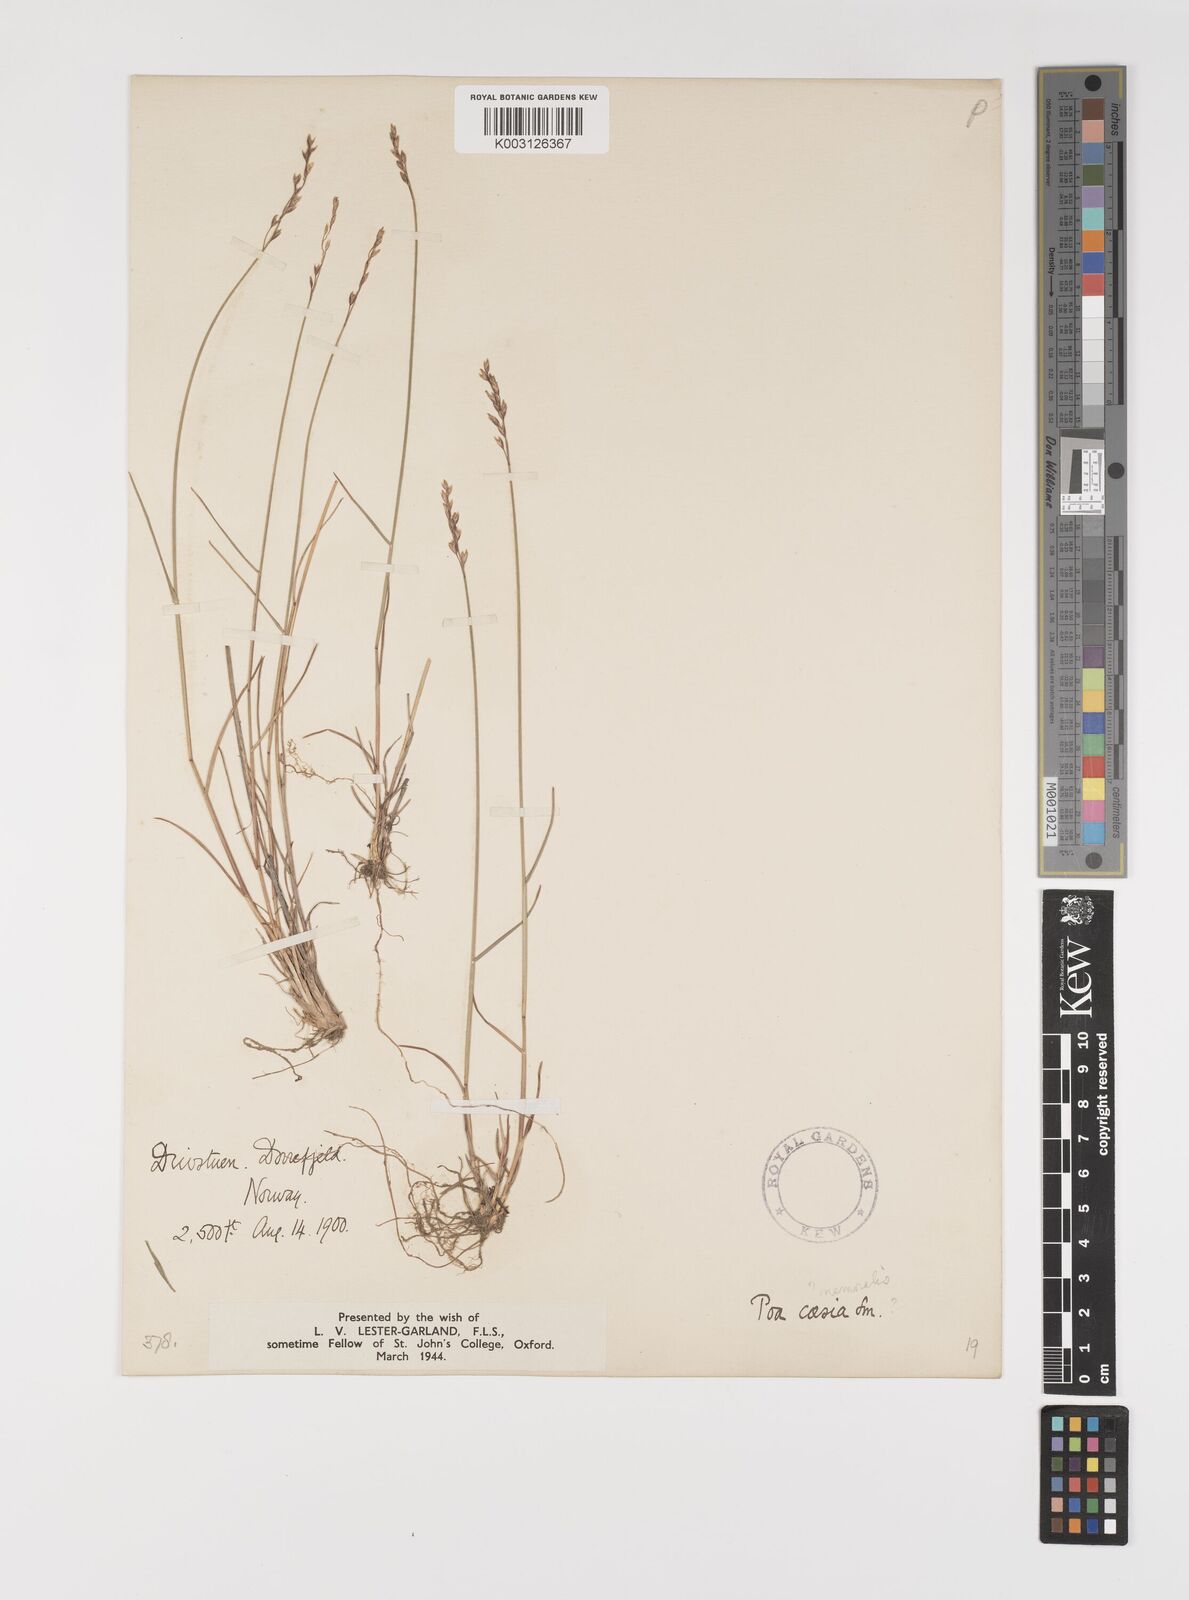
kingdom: Plantae
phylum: Tracheophyta
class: Liliopsida
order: Poales
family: Poaceae
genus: Poa
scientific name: Poa glauca
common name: Glaucous bluegrass
